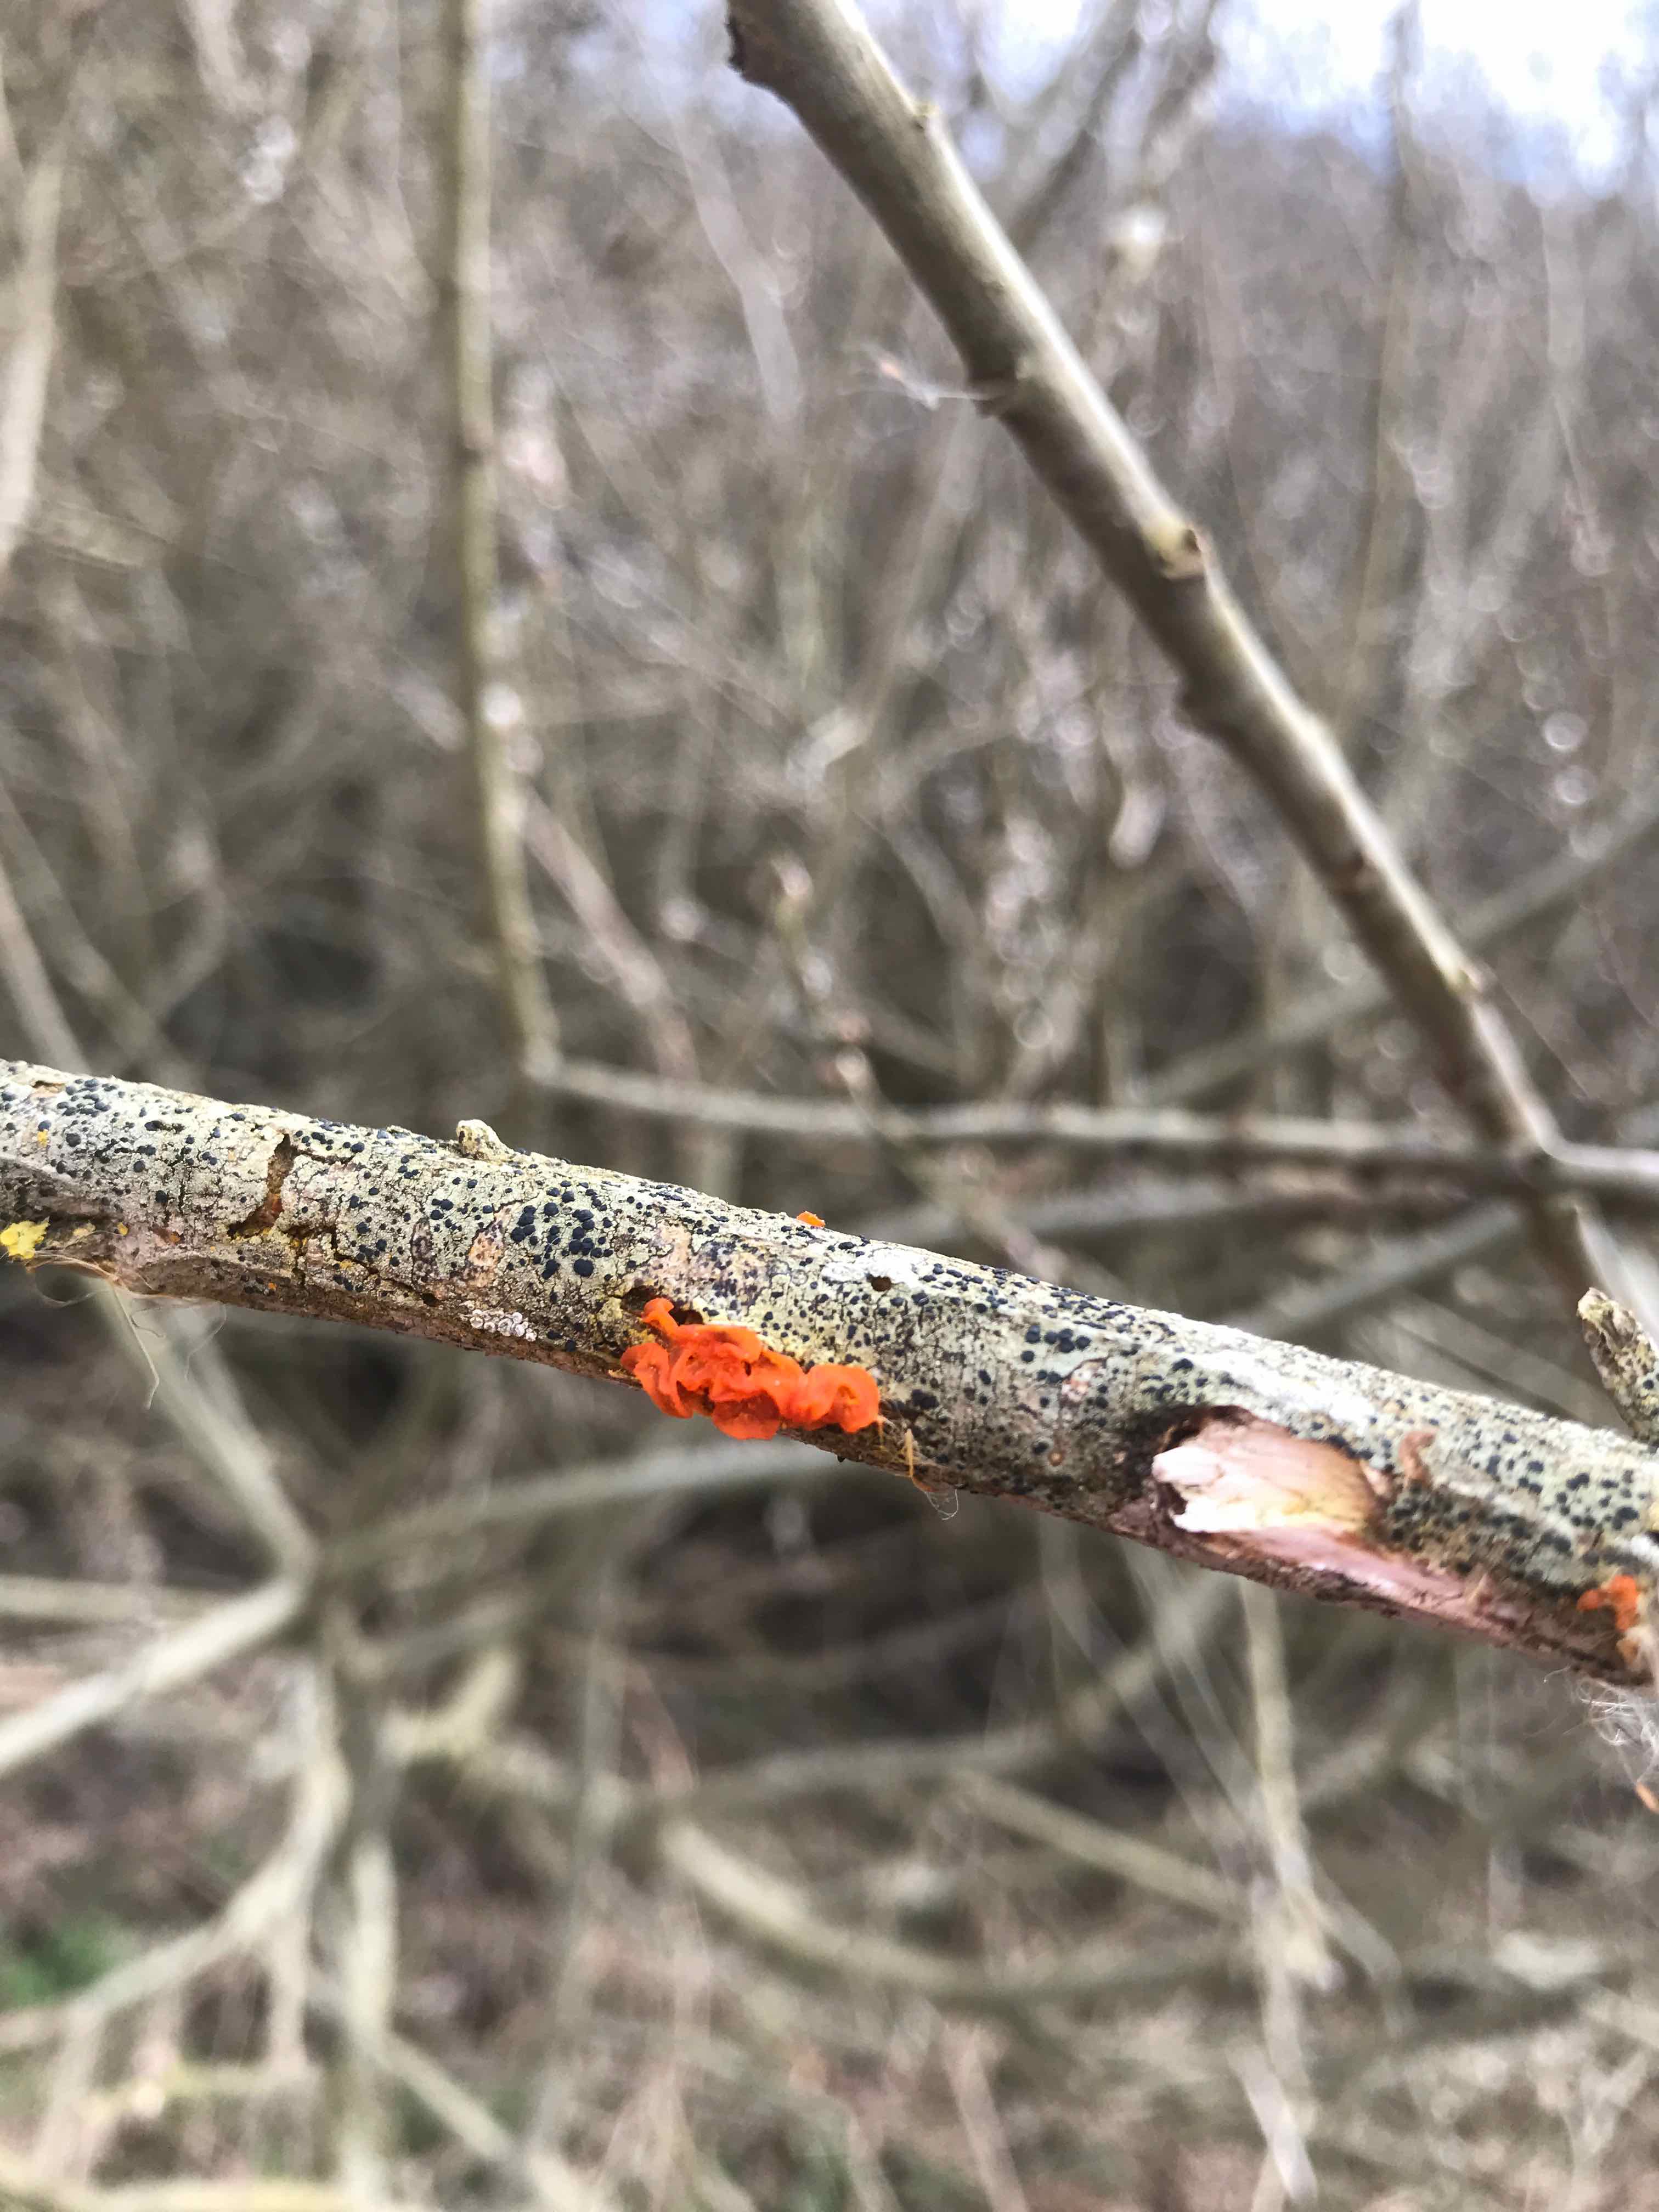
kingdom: Fungi
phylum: Basidiomycota
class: Tremellomycetes
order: Tremellales
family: Tremellaceae
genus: Tremella
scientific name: Tremella mesenterica
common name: gul bævresvamp
